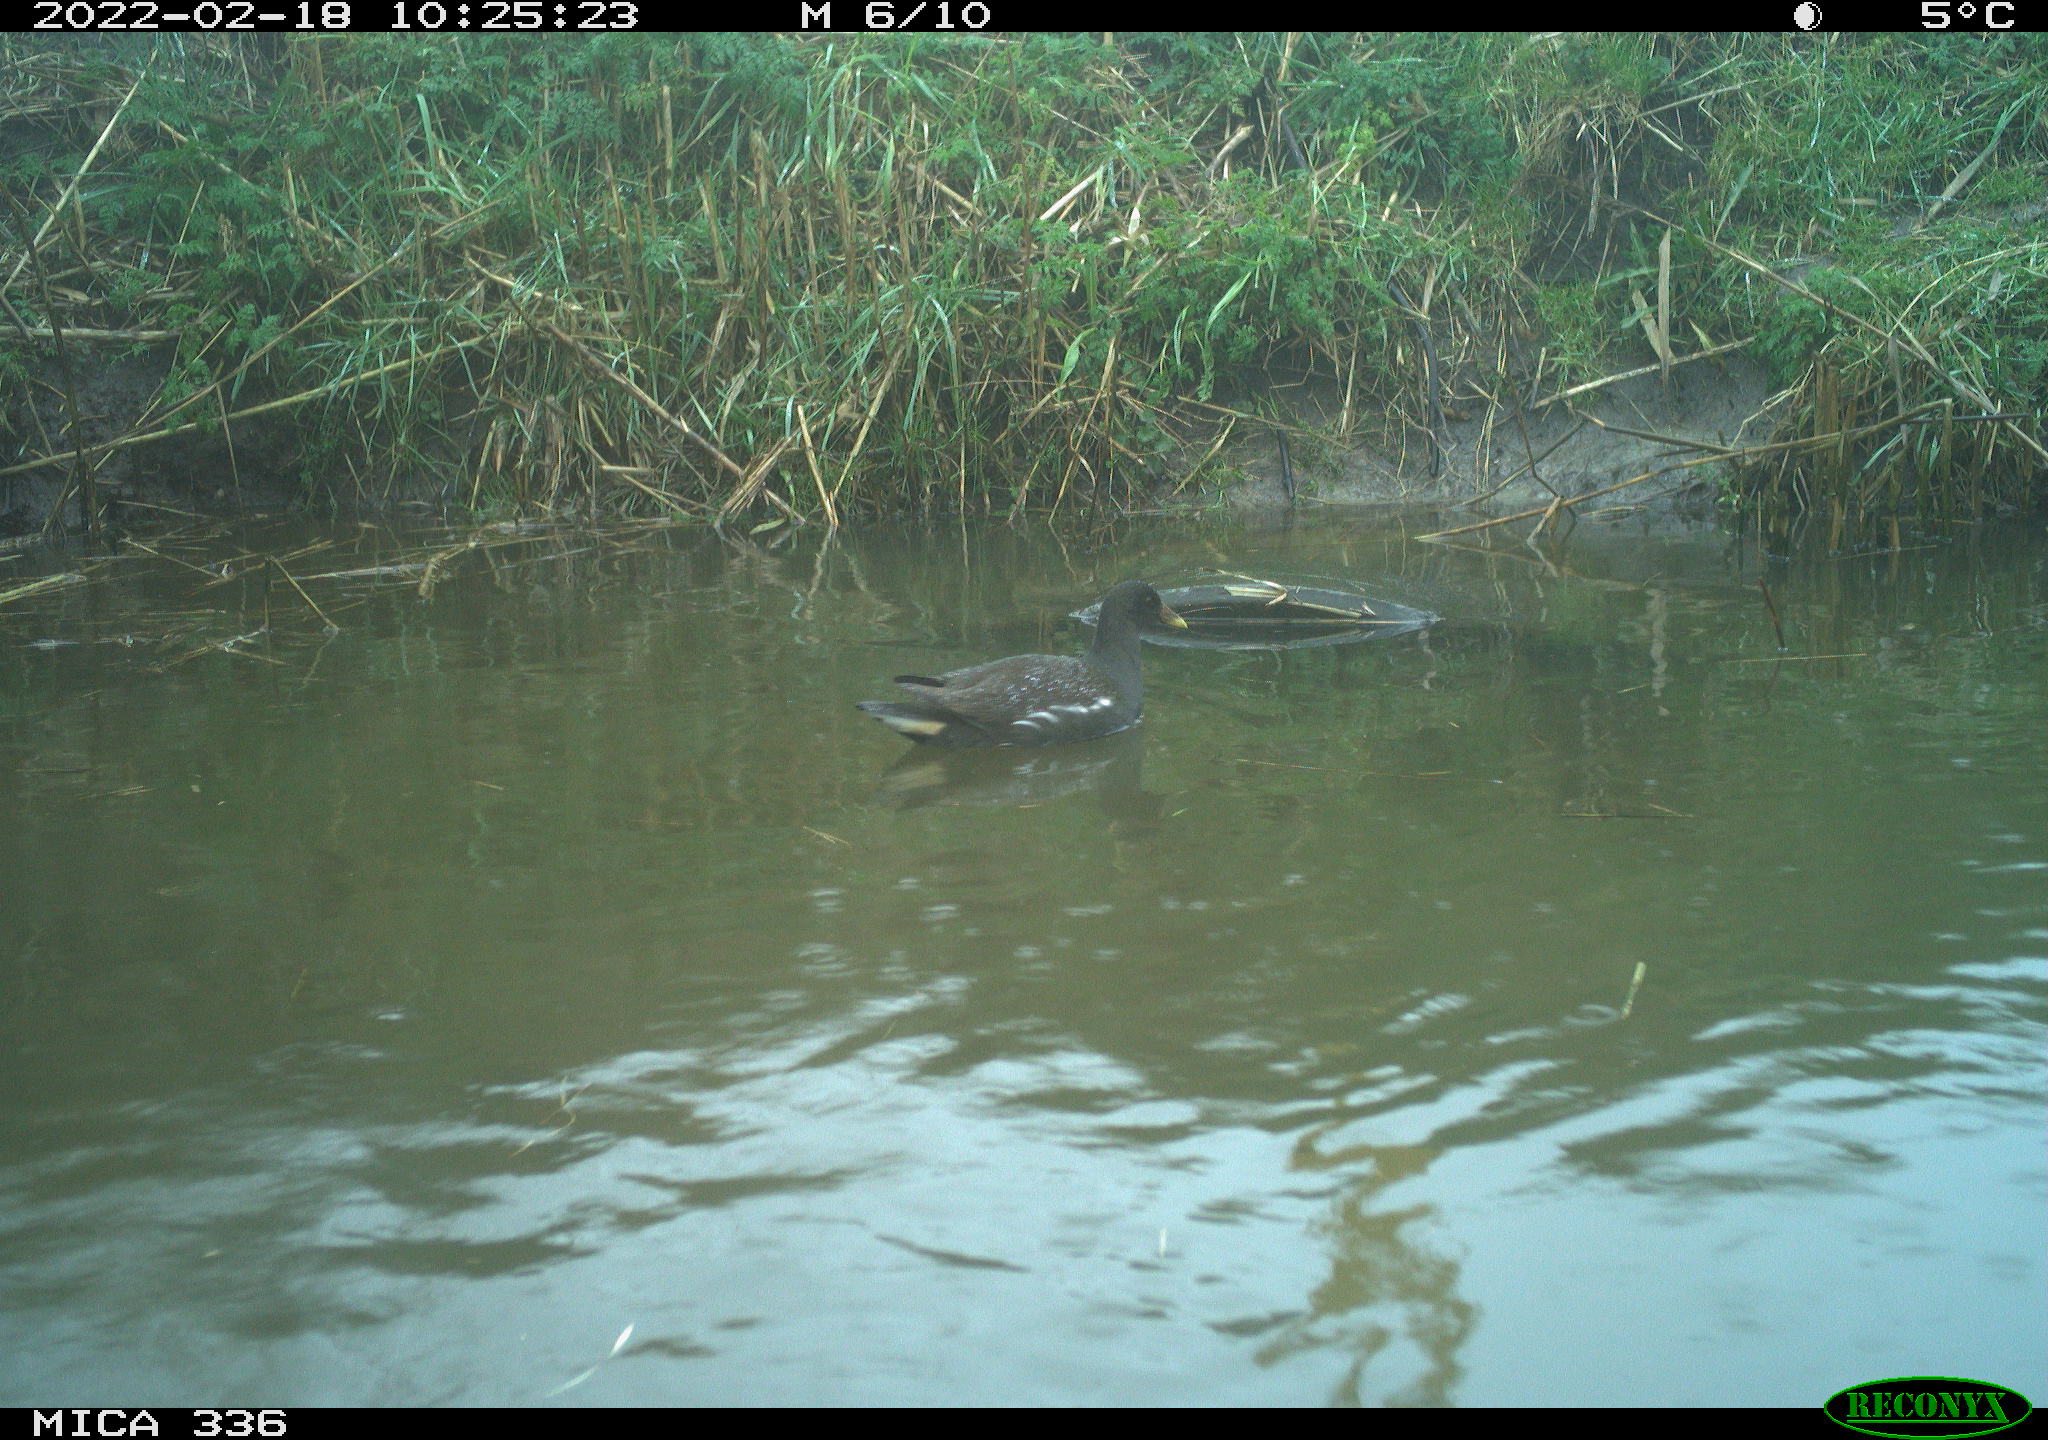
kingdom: Animalia
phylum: Chordata
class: Aves
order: Gruiformes
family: Rallidae
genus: Gallinula
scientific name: Gallinula chloropus
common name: Common moorhen
